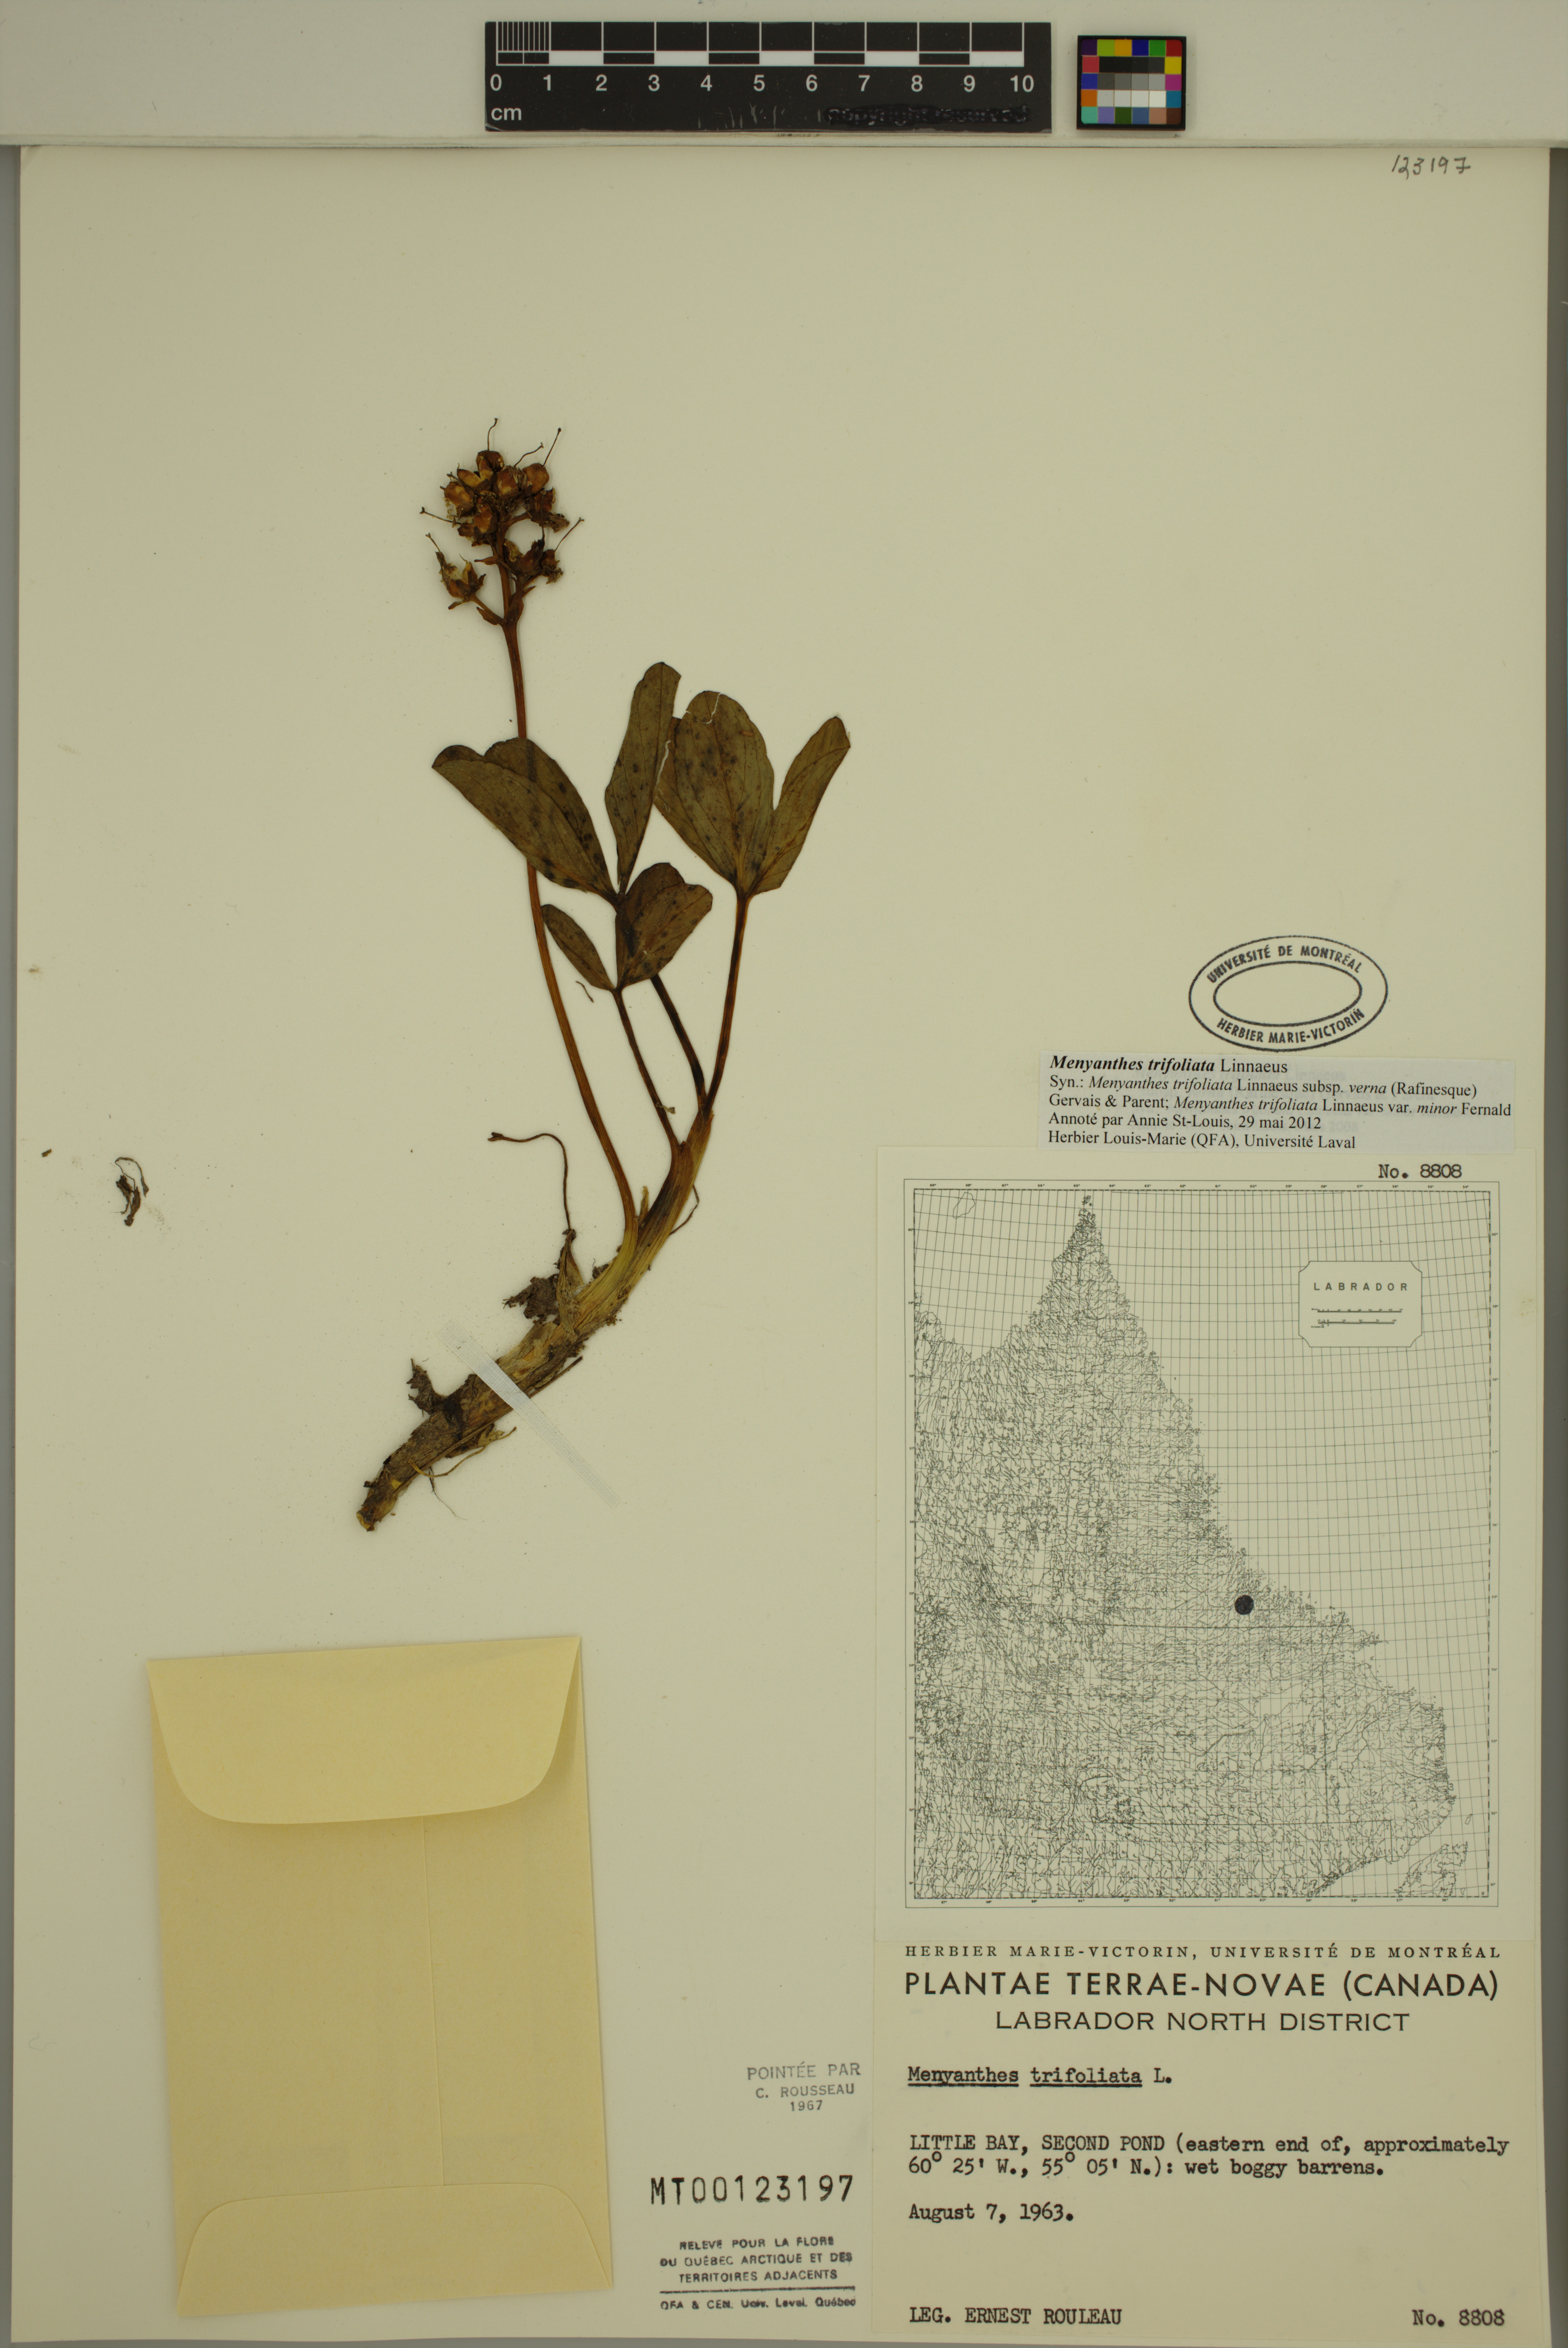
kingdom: Plantae
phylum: Tracheophyta
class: Magnoliopsida
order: Asterales
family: Menyanthaceae
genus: Menyanthes
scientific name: Menyanthes trifoliata
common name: Bogbean
